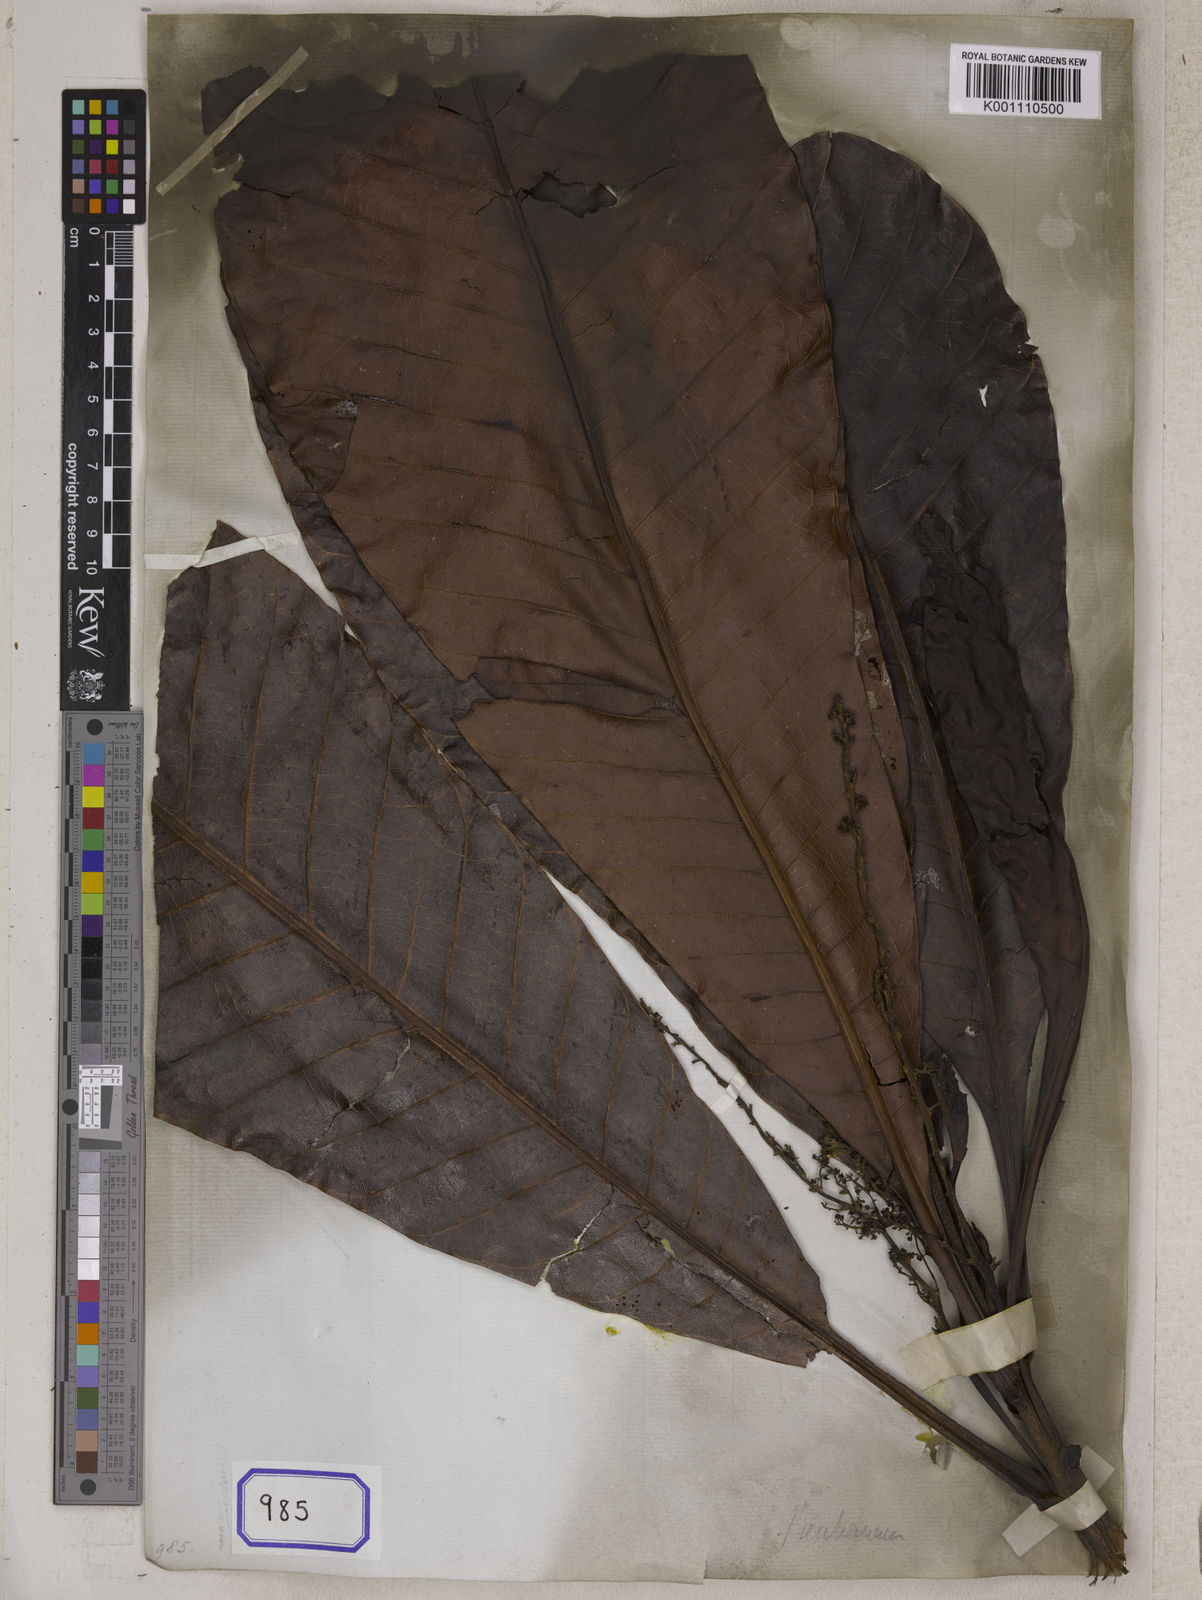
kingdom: Plantae
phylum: Tracheophyta
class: Magnoliopsida
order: Sapindales
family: Anacardiaceae
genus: Semecarpus
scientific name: Semecarpus
